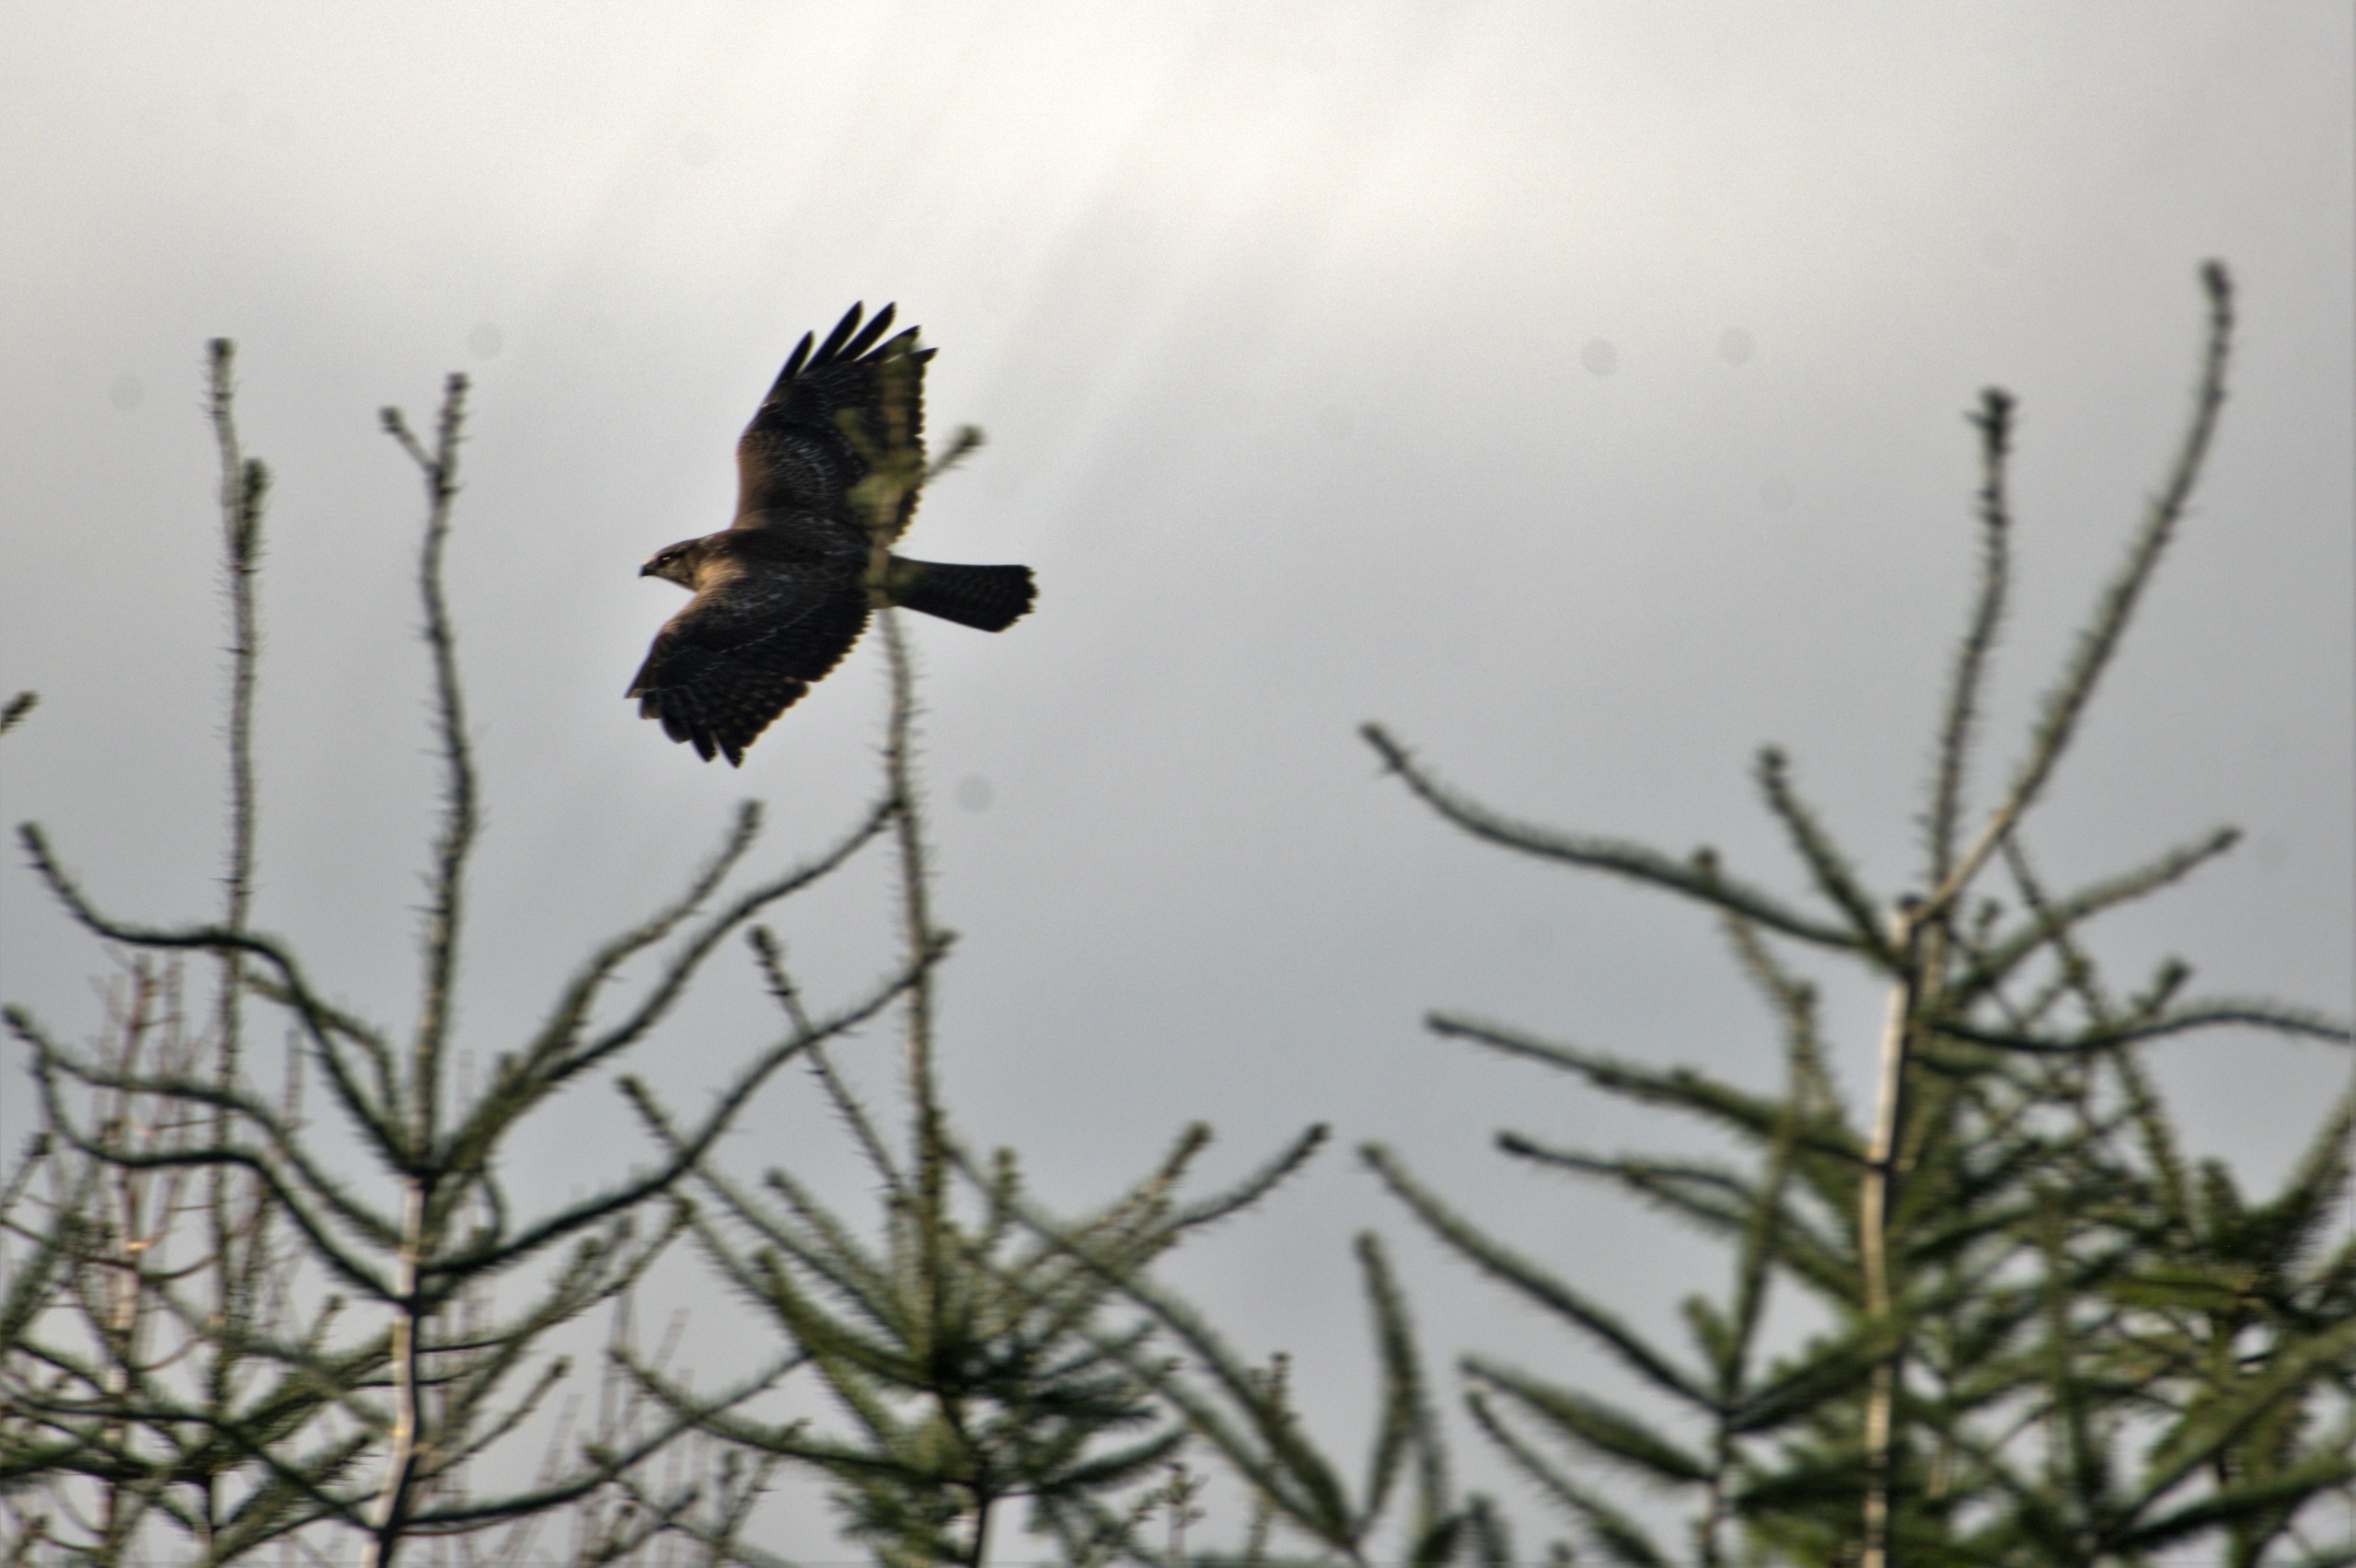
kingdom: Animalia
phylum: Chordata
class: Aves
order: Accipitriformes
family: Accipitridae
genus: Buteo
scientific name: Buteo buteo
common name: Musvåge
